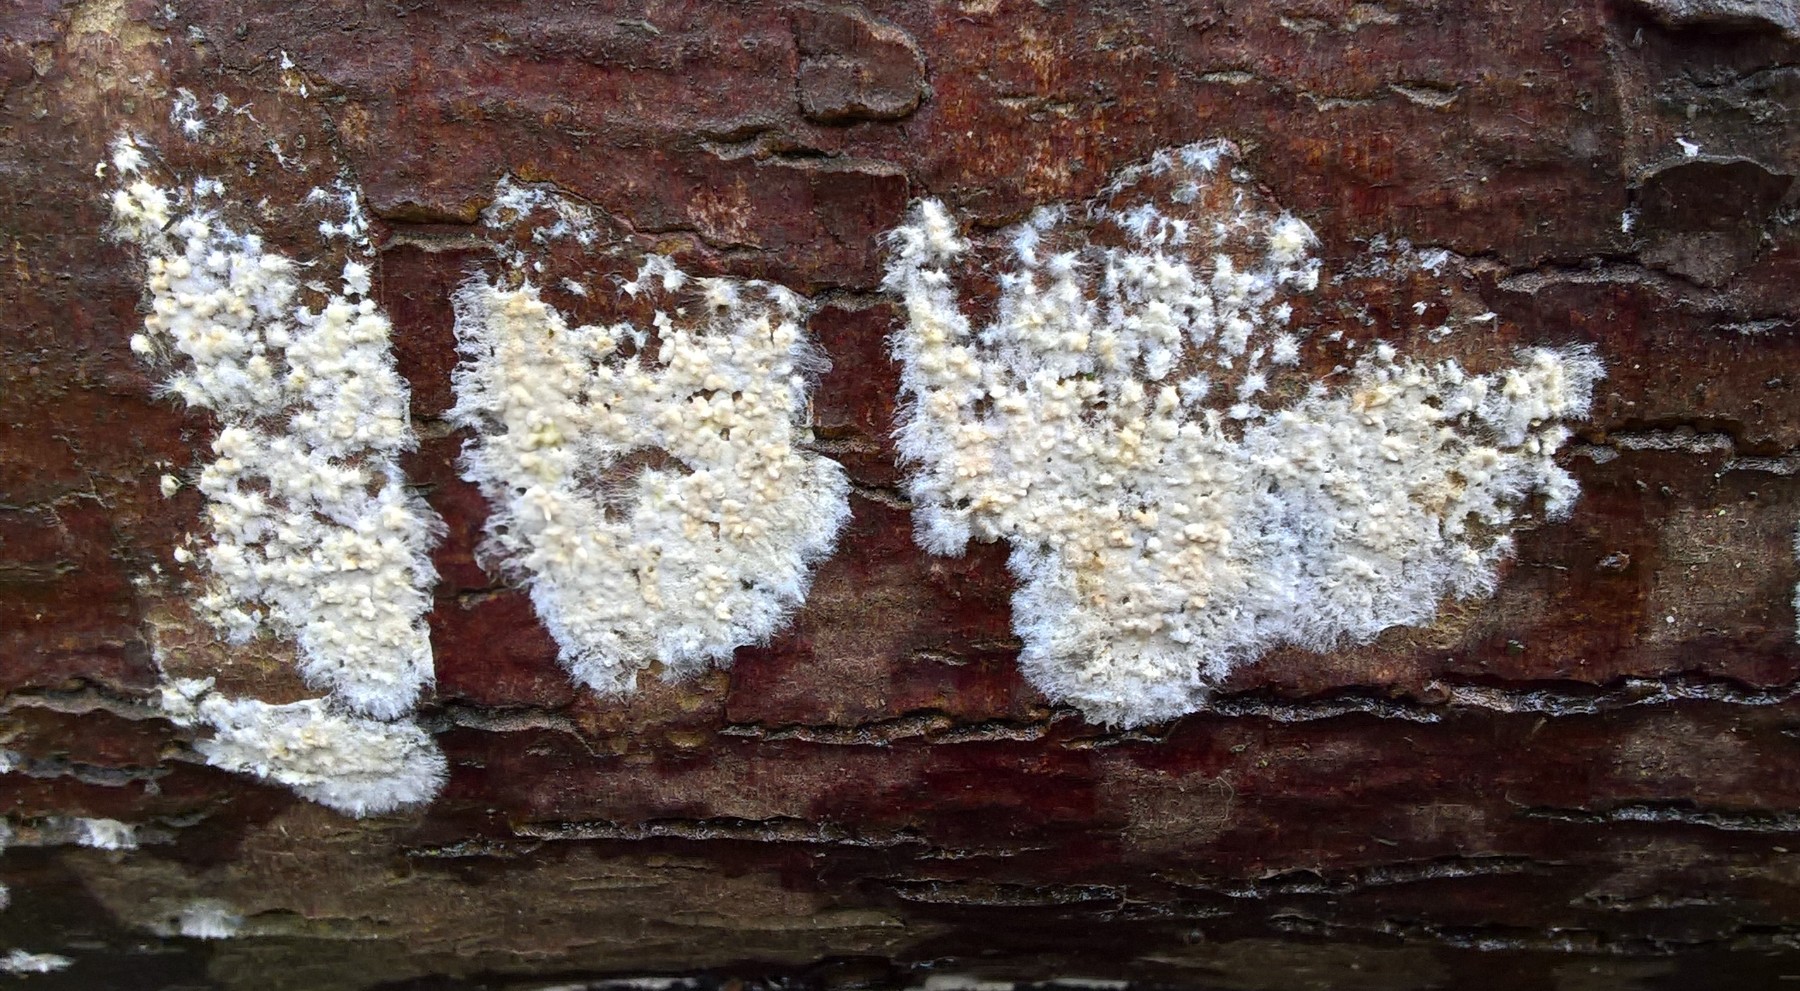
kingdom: Fungi
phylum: Basidiomycota
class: Agaricomycetes
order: Corticiales
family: Corticiaceae
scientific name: Corticiaceae
